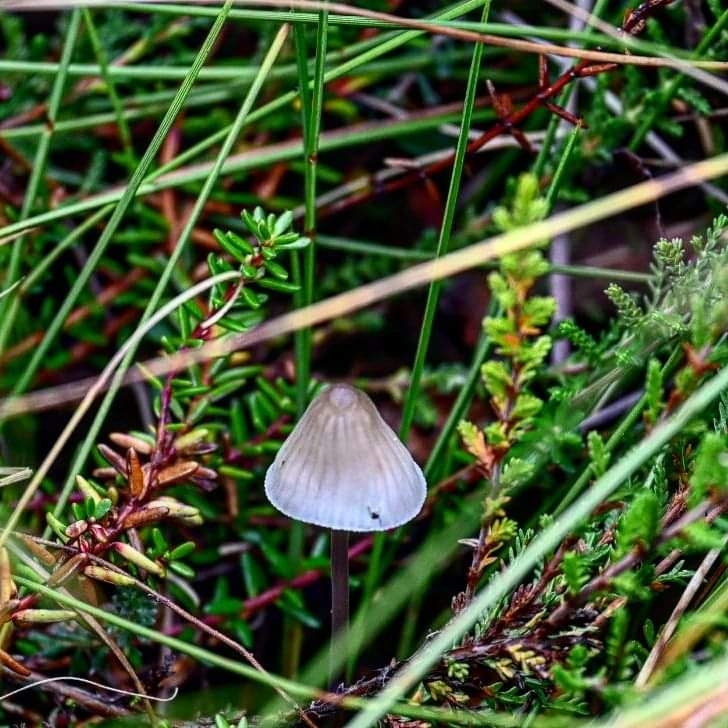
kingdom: Fungi
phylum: Basidiomycota
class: Agaricomycetes
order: Agaricales
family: Mycenaceae
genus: Mycena
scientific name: Mycena
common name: huesvamp
